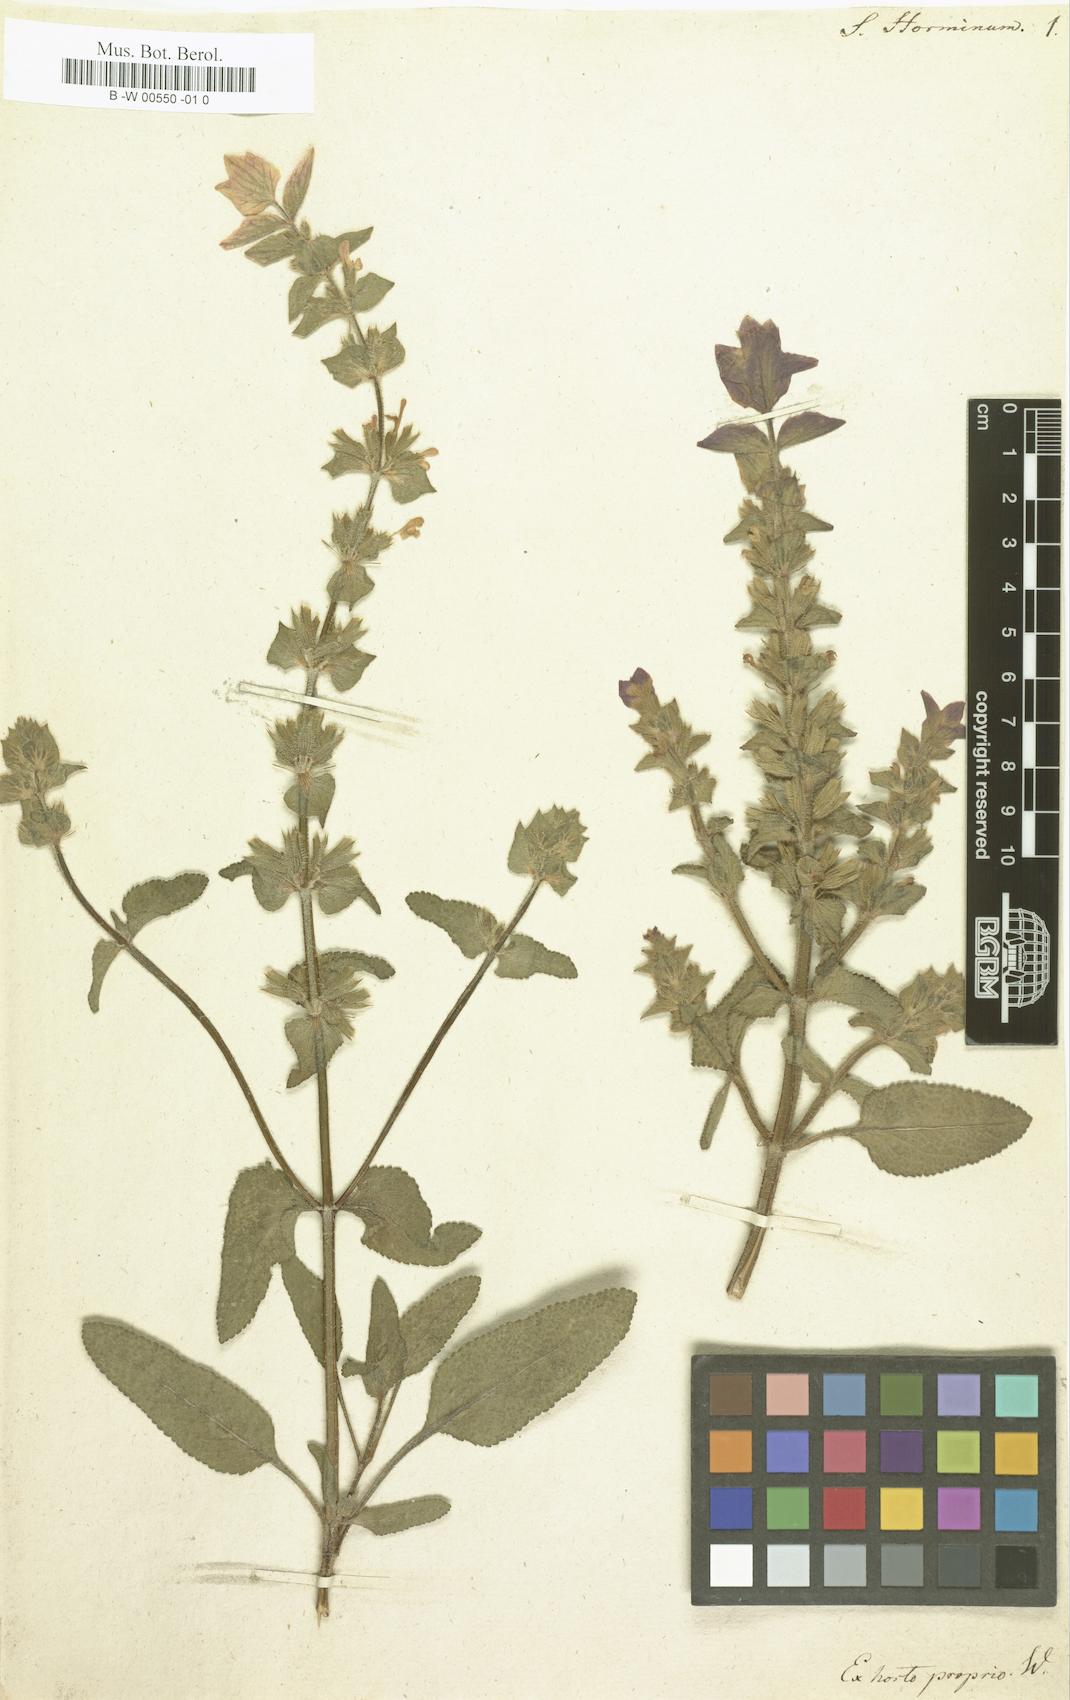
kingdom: Plantae
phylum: Tracheophyta
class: Magnoliopsida
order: Lamiales
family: Lamiaceae
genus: Salvia
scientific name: Salvia viridis
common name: Annual clary
